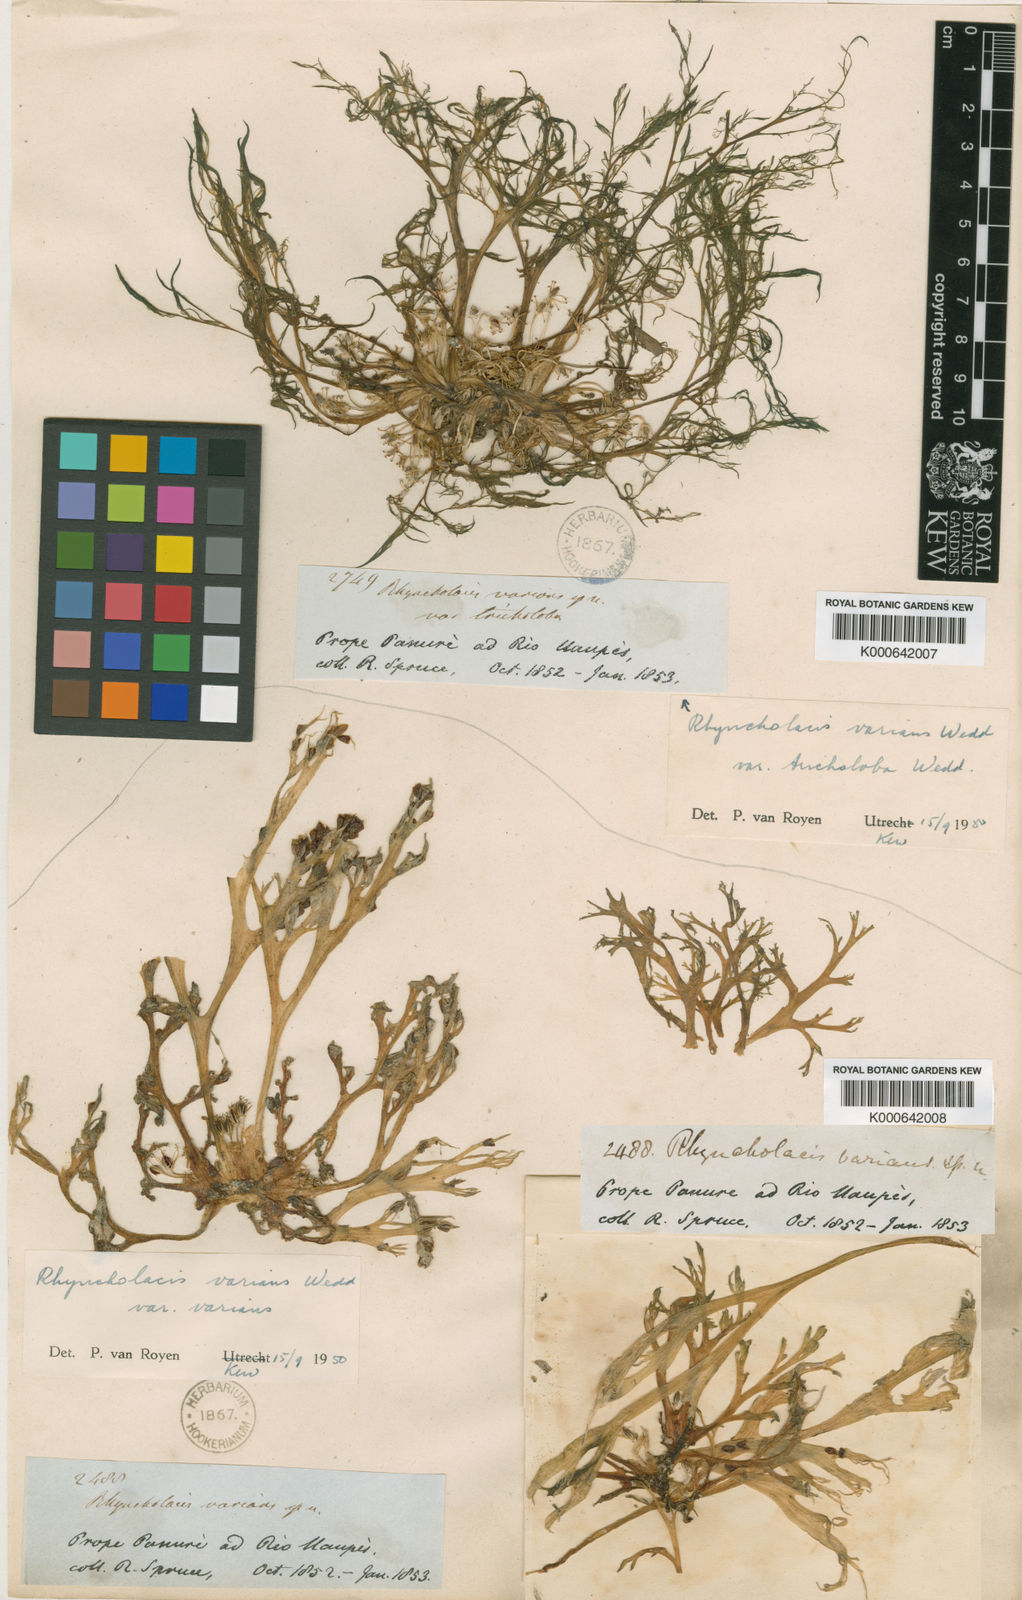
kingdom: Plantae
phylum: Tracheophyta
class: Magnoliopsida
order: Malpighiales
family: Podostemaceae
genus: Rhyncholacis
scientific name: Rhyncholacis
